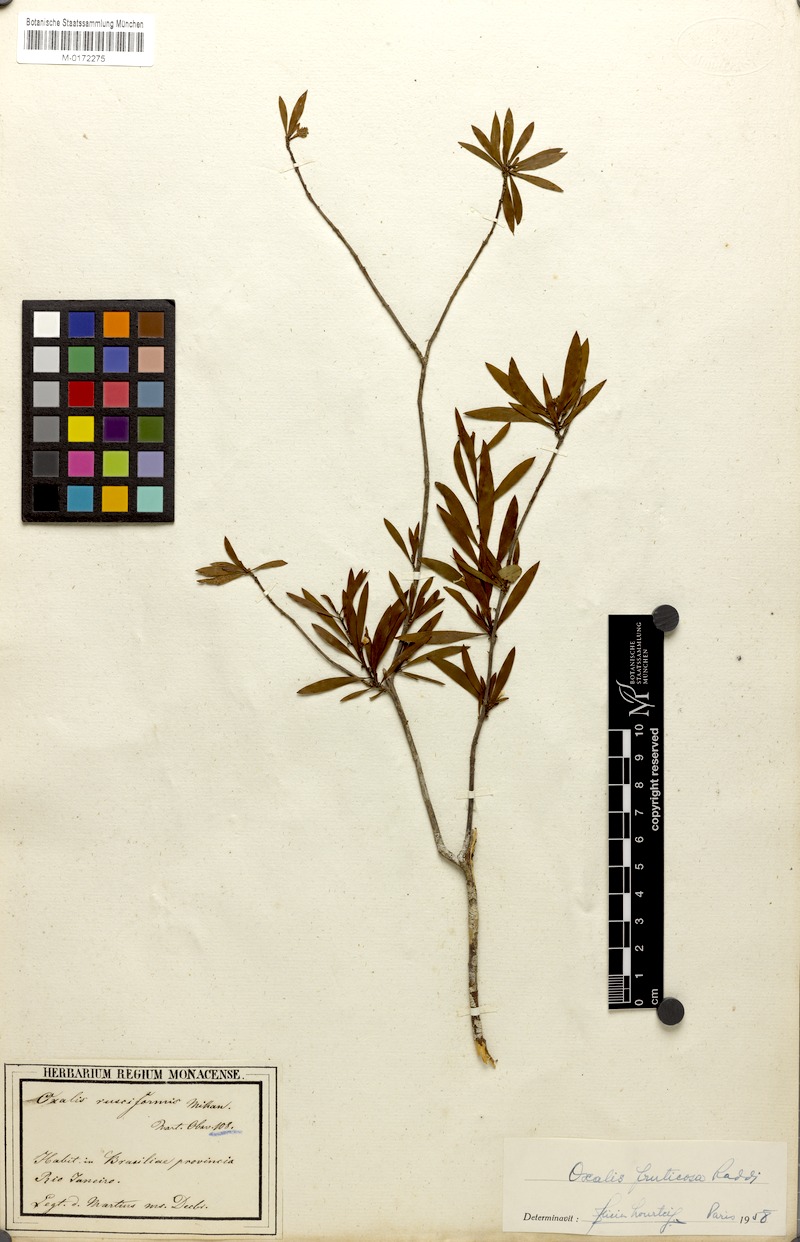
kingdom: Plantae
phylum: Tracheophyta
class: Magnoliopsida
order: Oxalidales
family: Oxalidaceae
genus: Oxalis
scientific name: Oxalis peruviana
